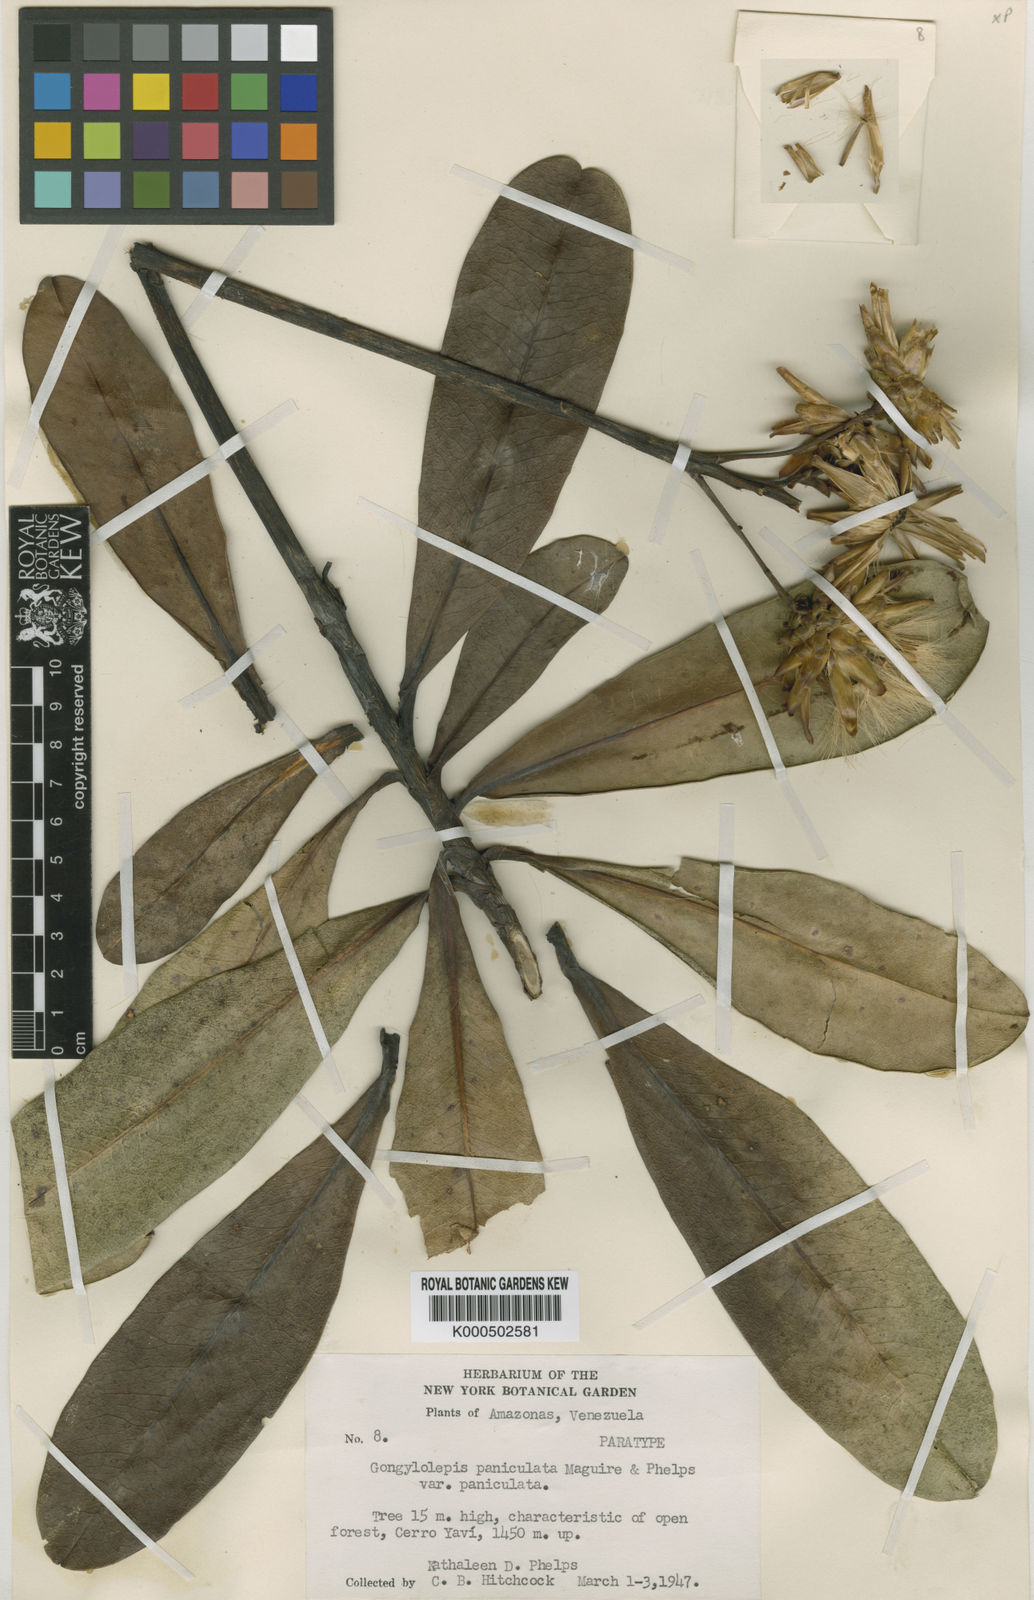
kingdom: Plantae
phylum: Tracheophyta
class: Magnoliopsida
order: Asterales
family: Asteraceae
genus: Gongylolepis
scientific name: Gongylolepis paniculata
